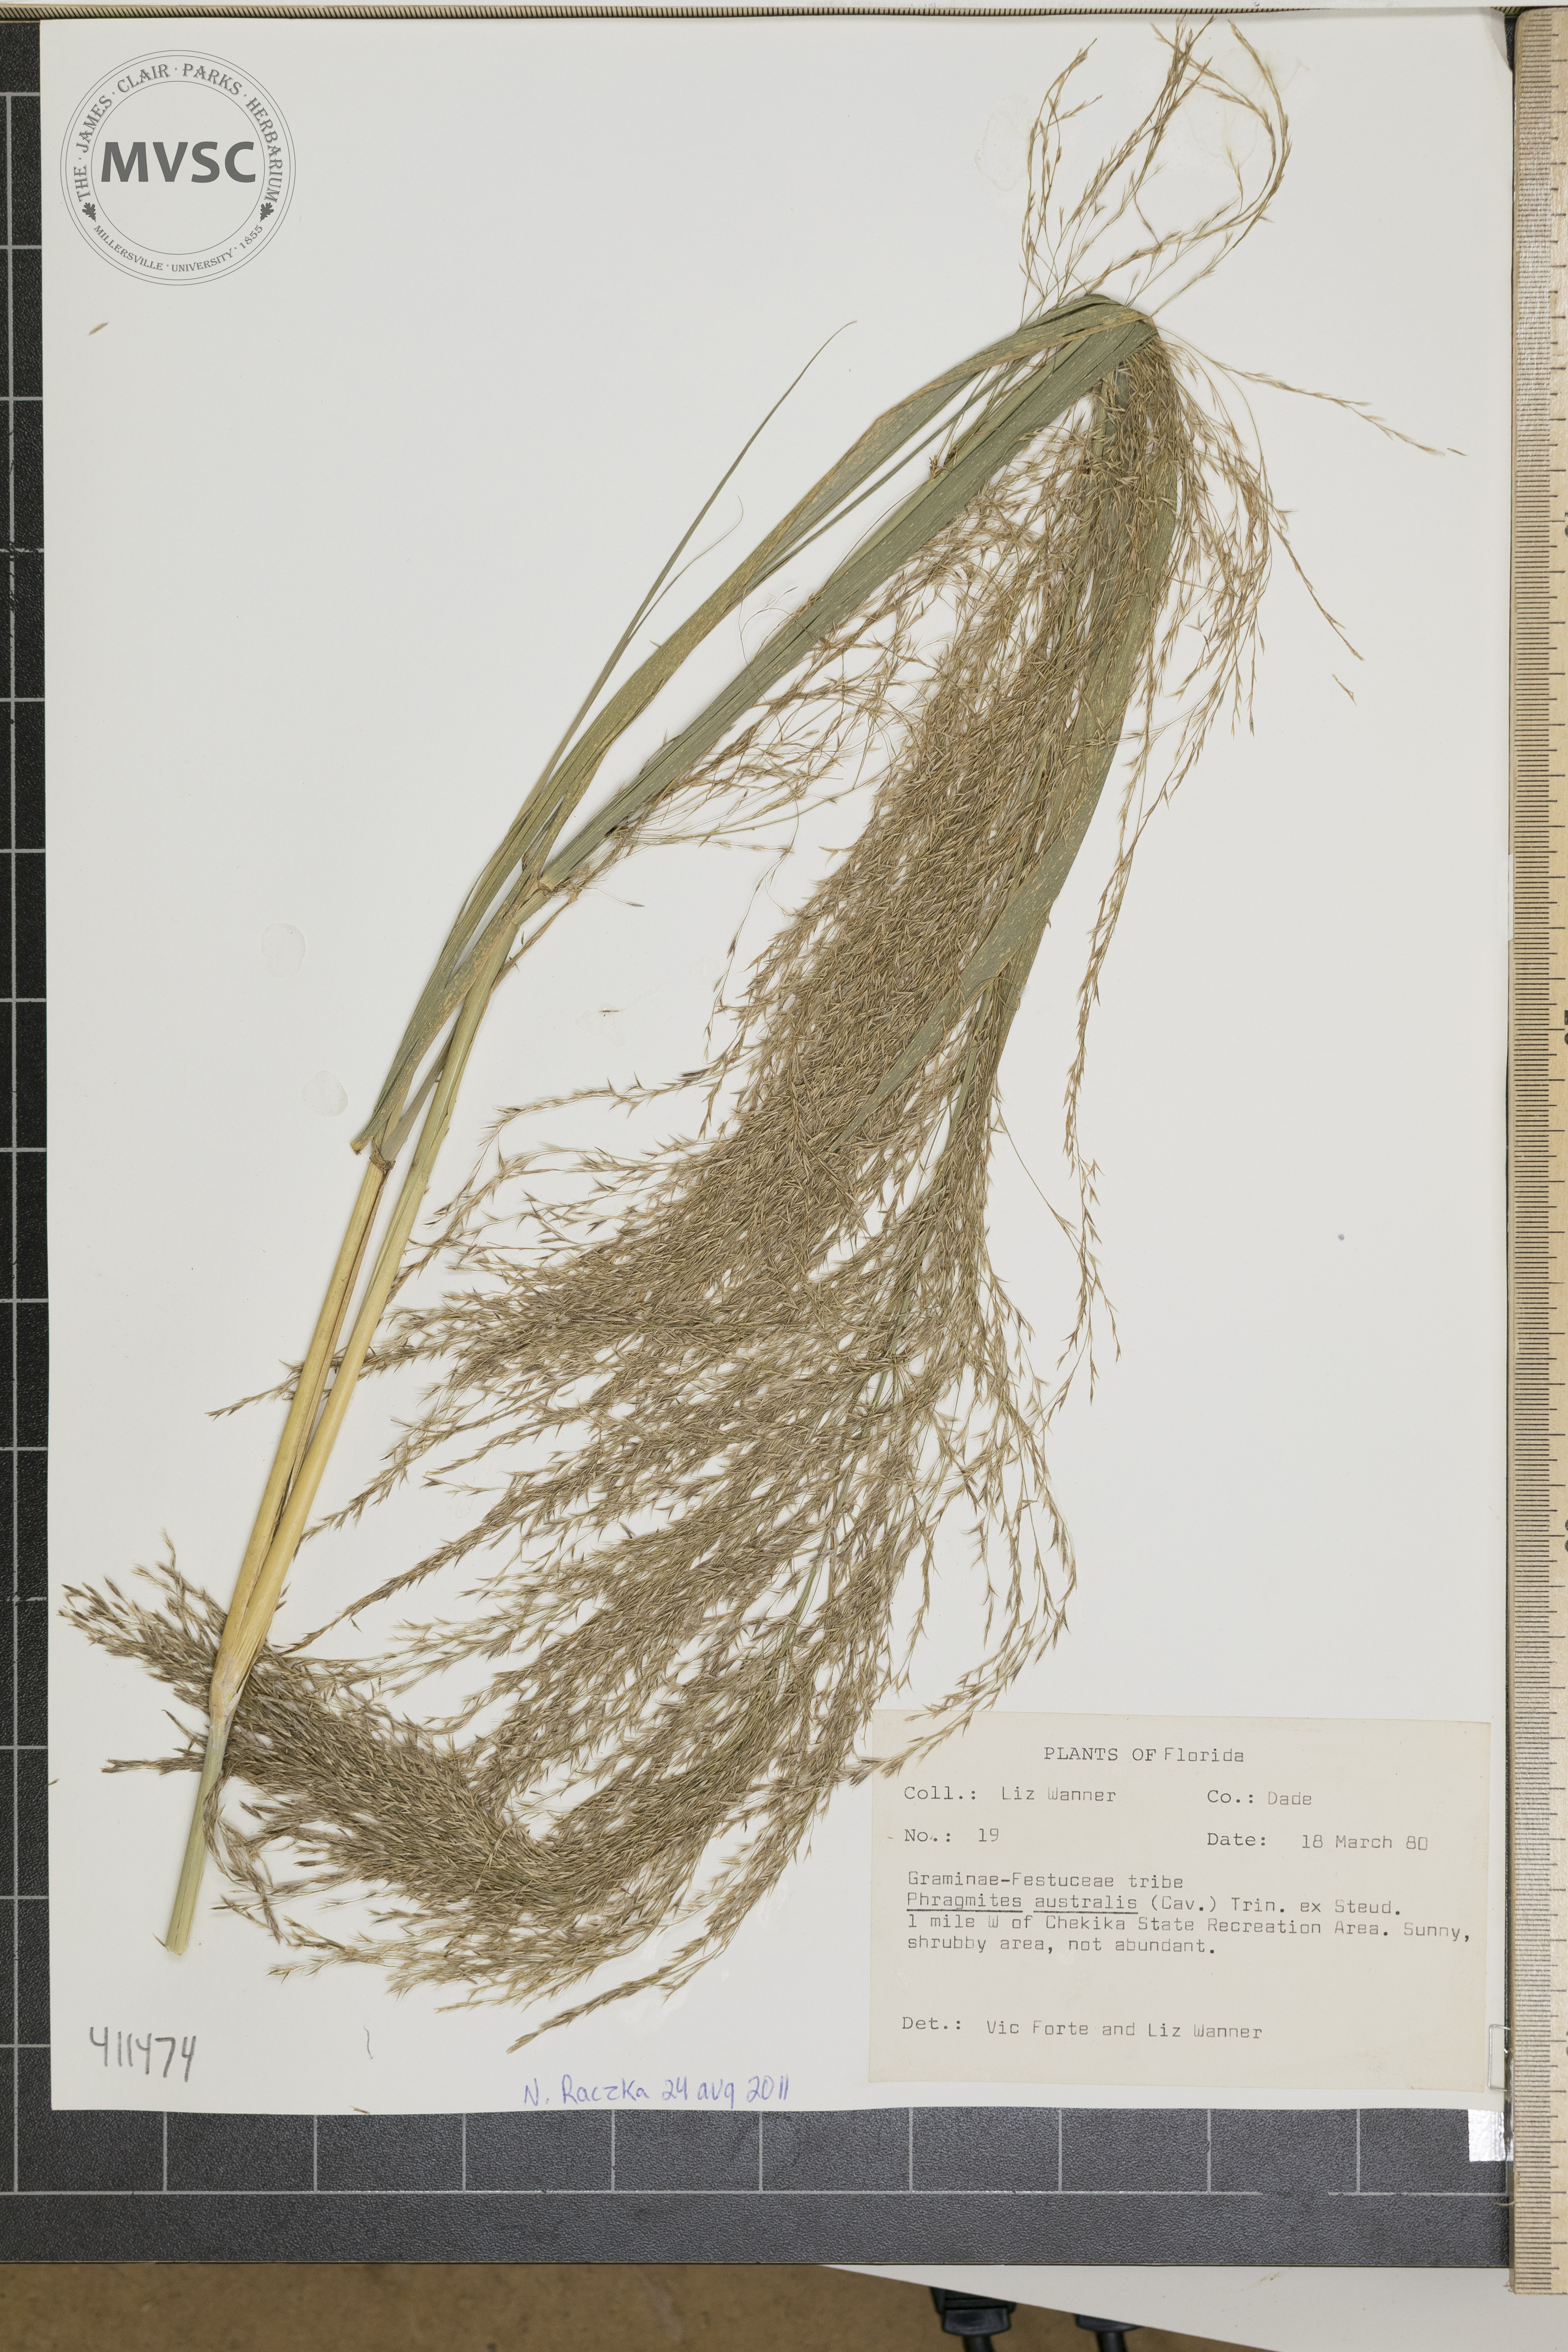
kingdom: Plantae
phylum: Tracheophyta
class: Liliopsida
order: Poales
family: Poaceae
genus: Phragmites
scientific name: Phragmites australis
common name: Common reed
